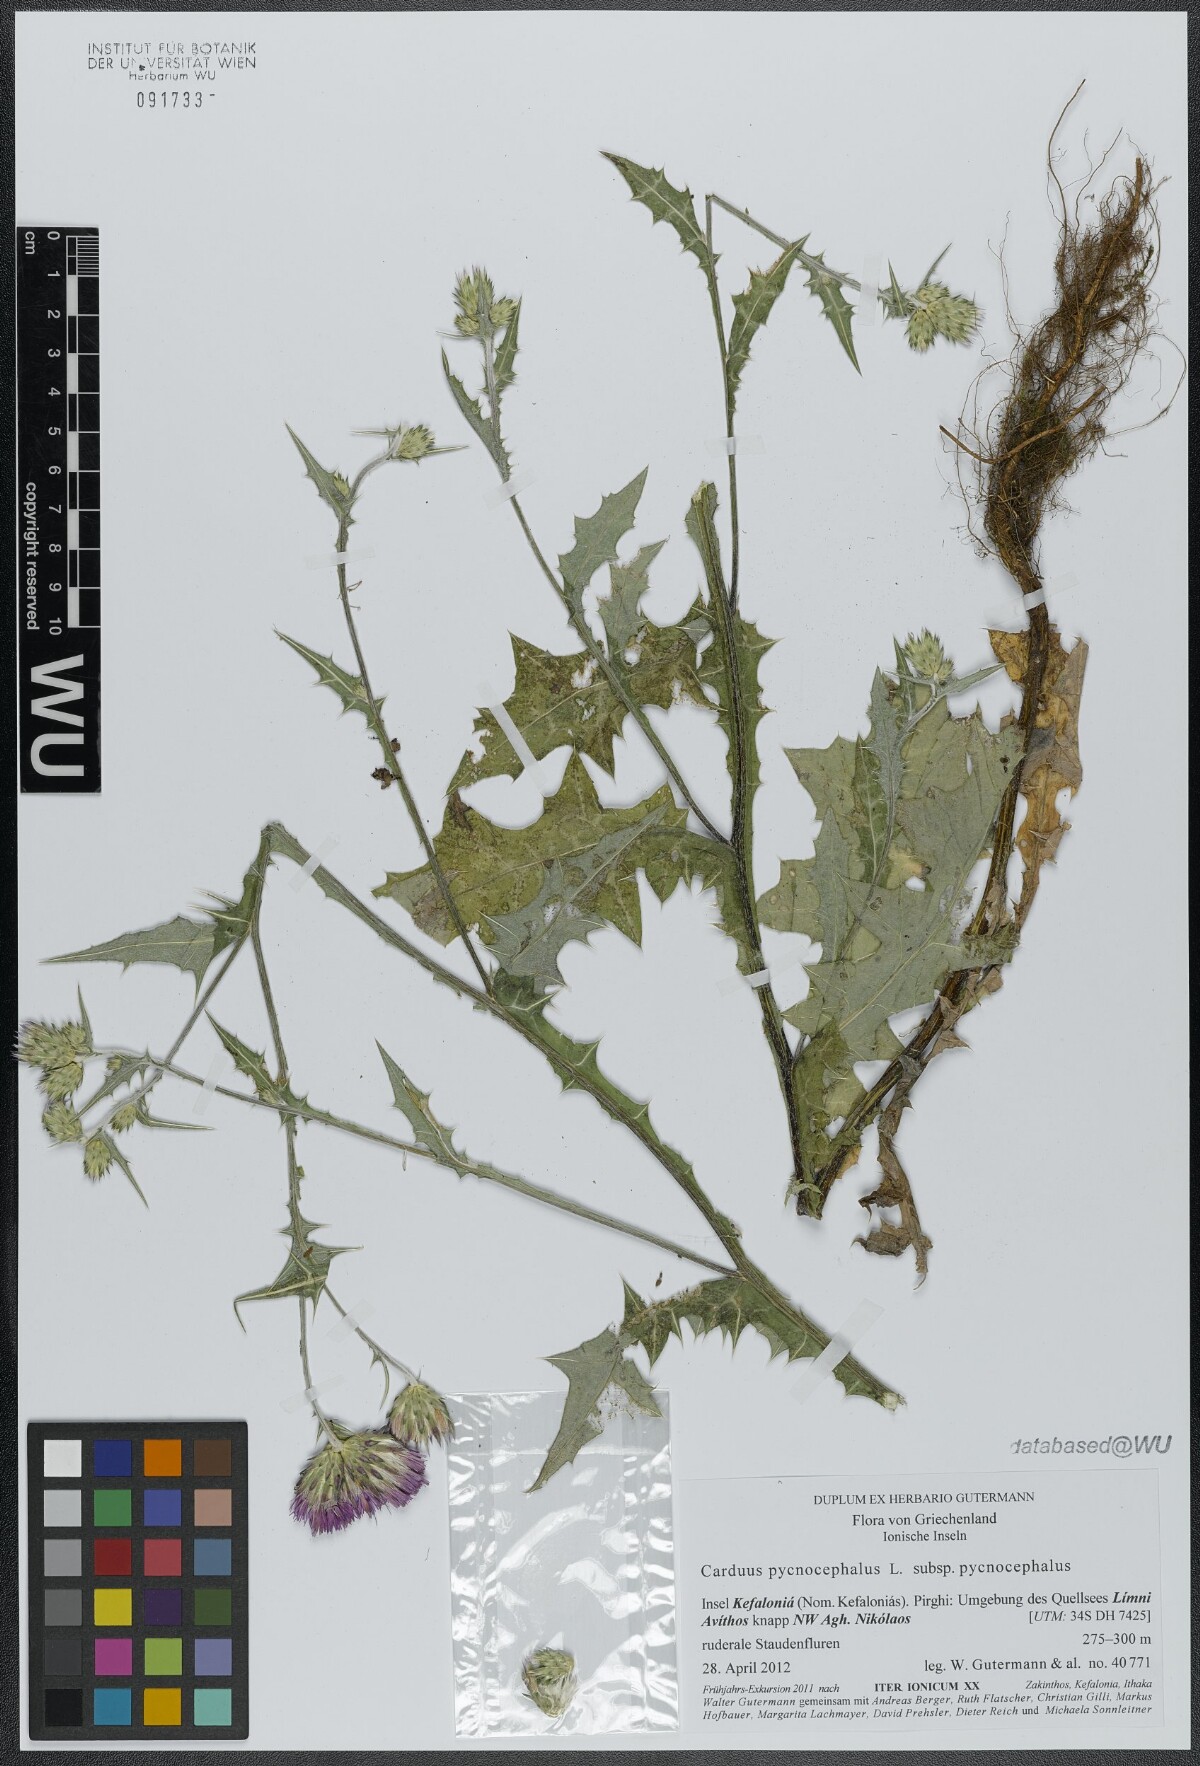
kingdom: Plantae
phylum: Tracheophyta
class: Magnoliopsida
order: Asterales
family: Asteraceae
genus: Carduus
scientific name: Carduus pycnocephalus
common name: Plymouth thistle
